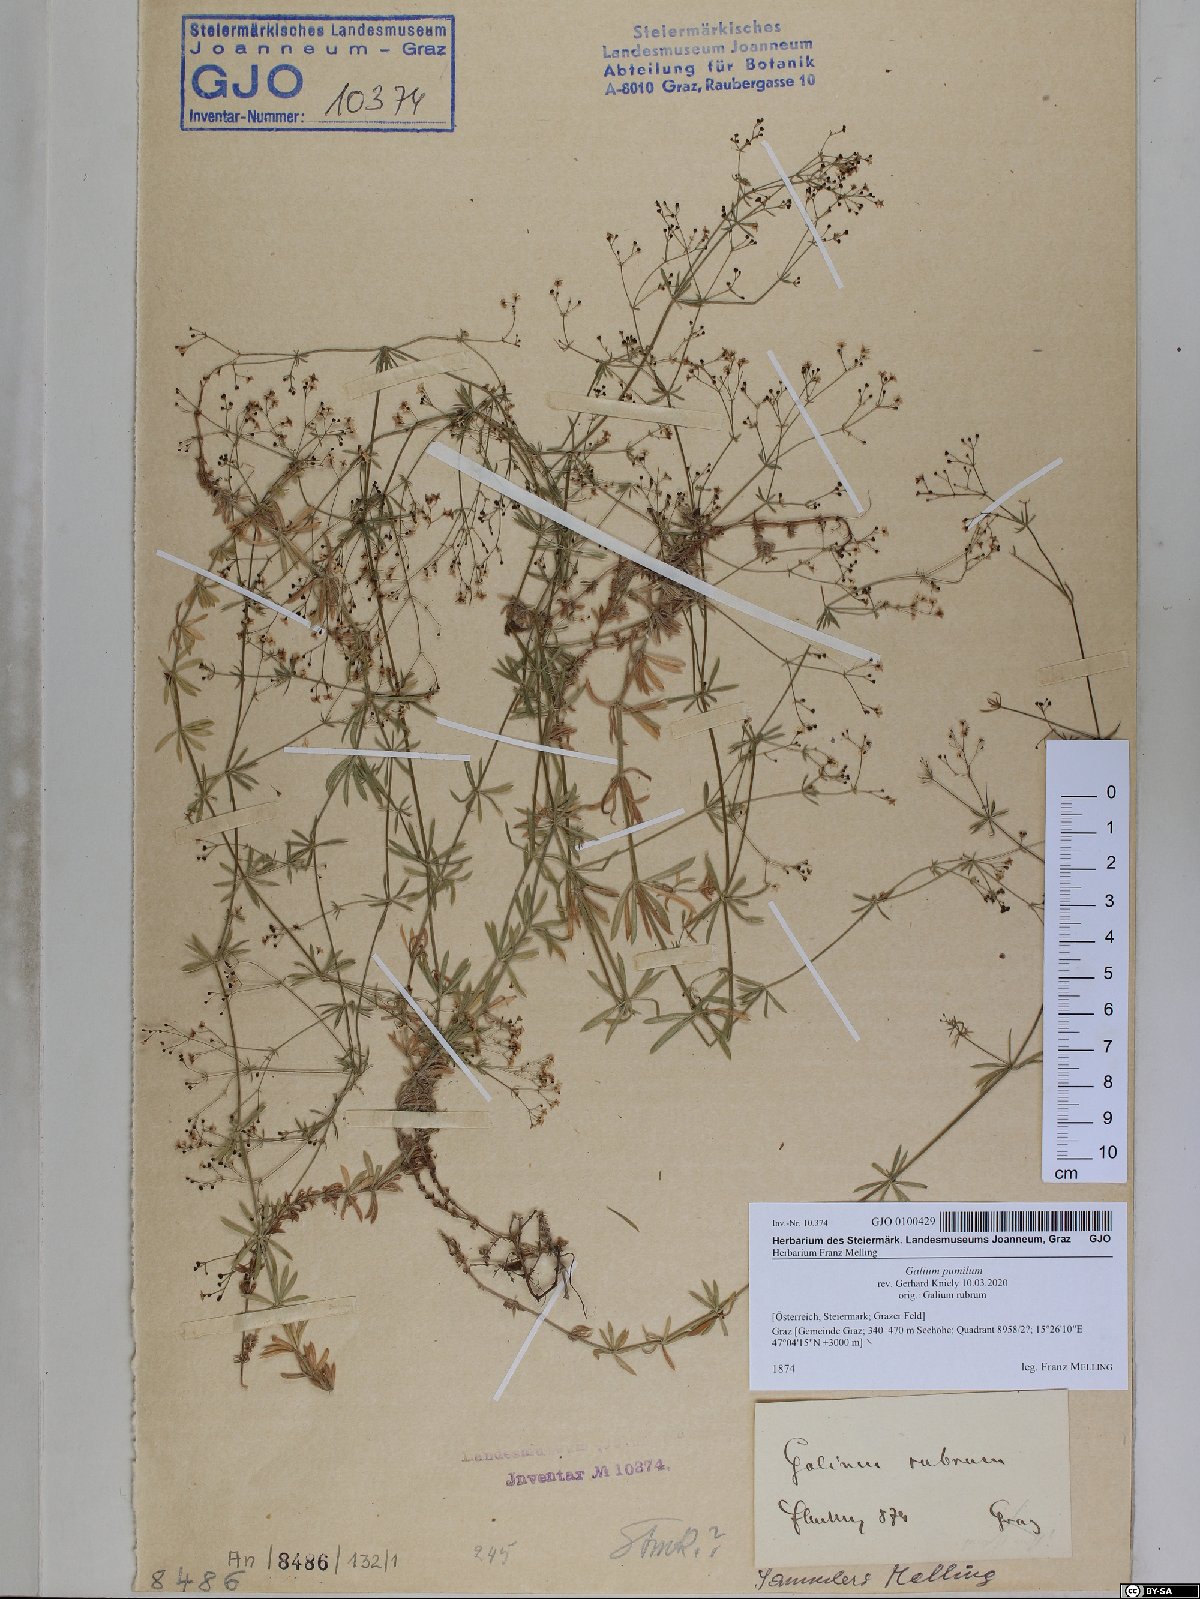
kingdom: Plantae
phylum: Tracheophyta
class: Magnoliopsida
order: Gentianales
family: Rubiaceae
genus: Galium
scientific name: Galium pumilum
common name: Slender bedstraw
